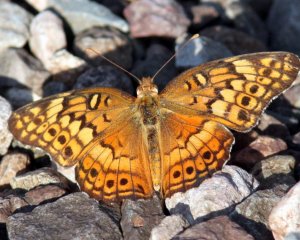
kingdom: Animalia
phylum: Arthropoda
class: Insecta
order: Lepidoptera
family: Nymphalidae
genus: Euptoieta
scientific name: Euptoieta claudia
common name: Variegated Fritillary
